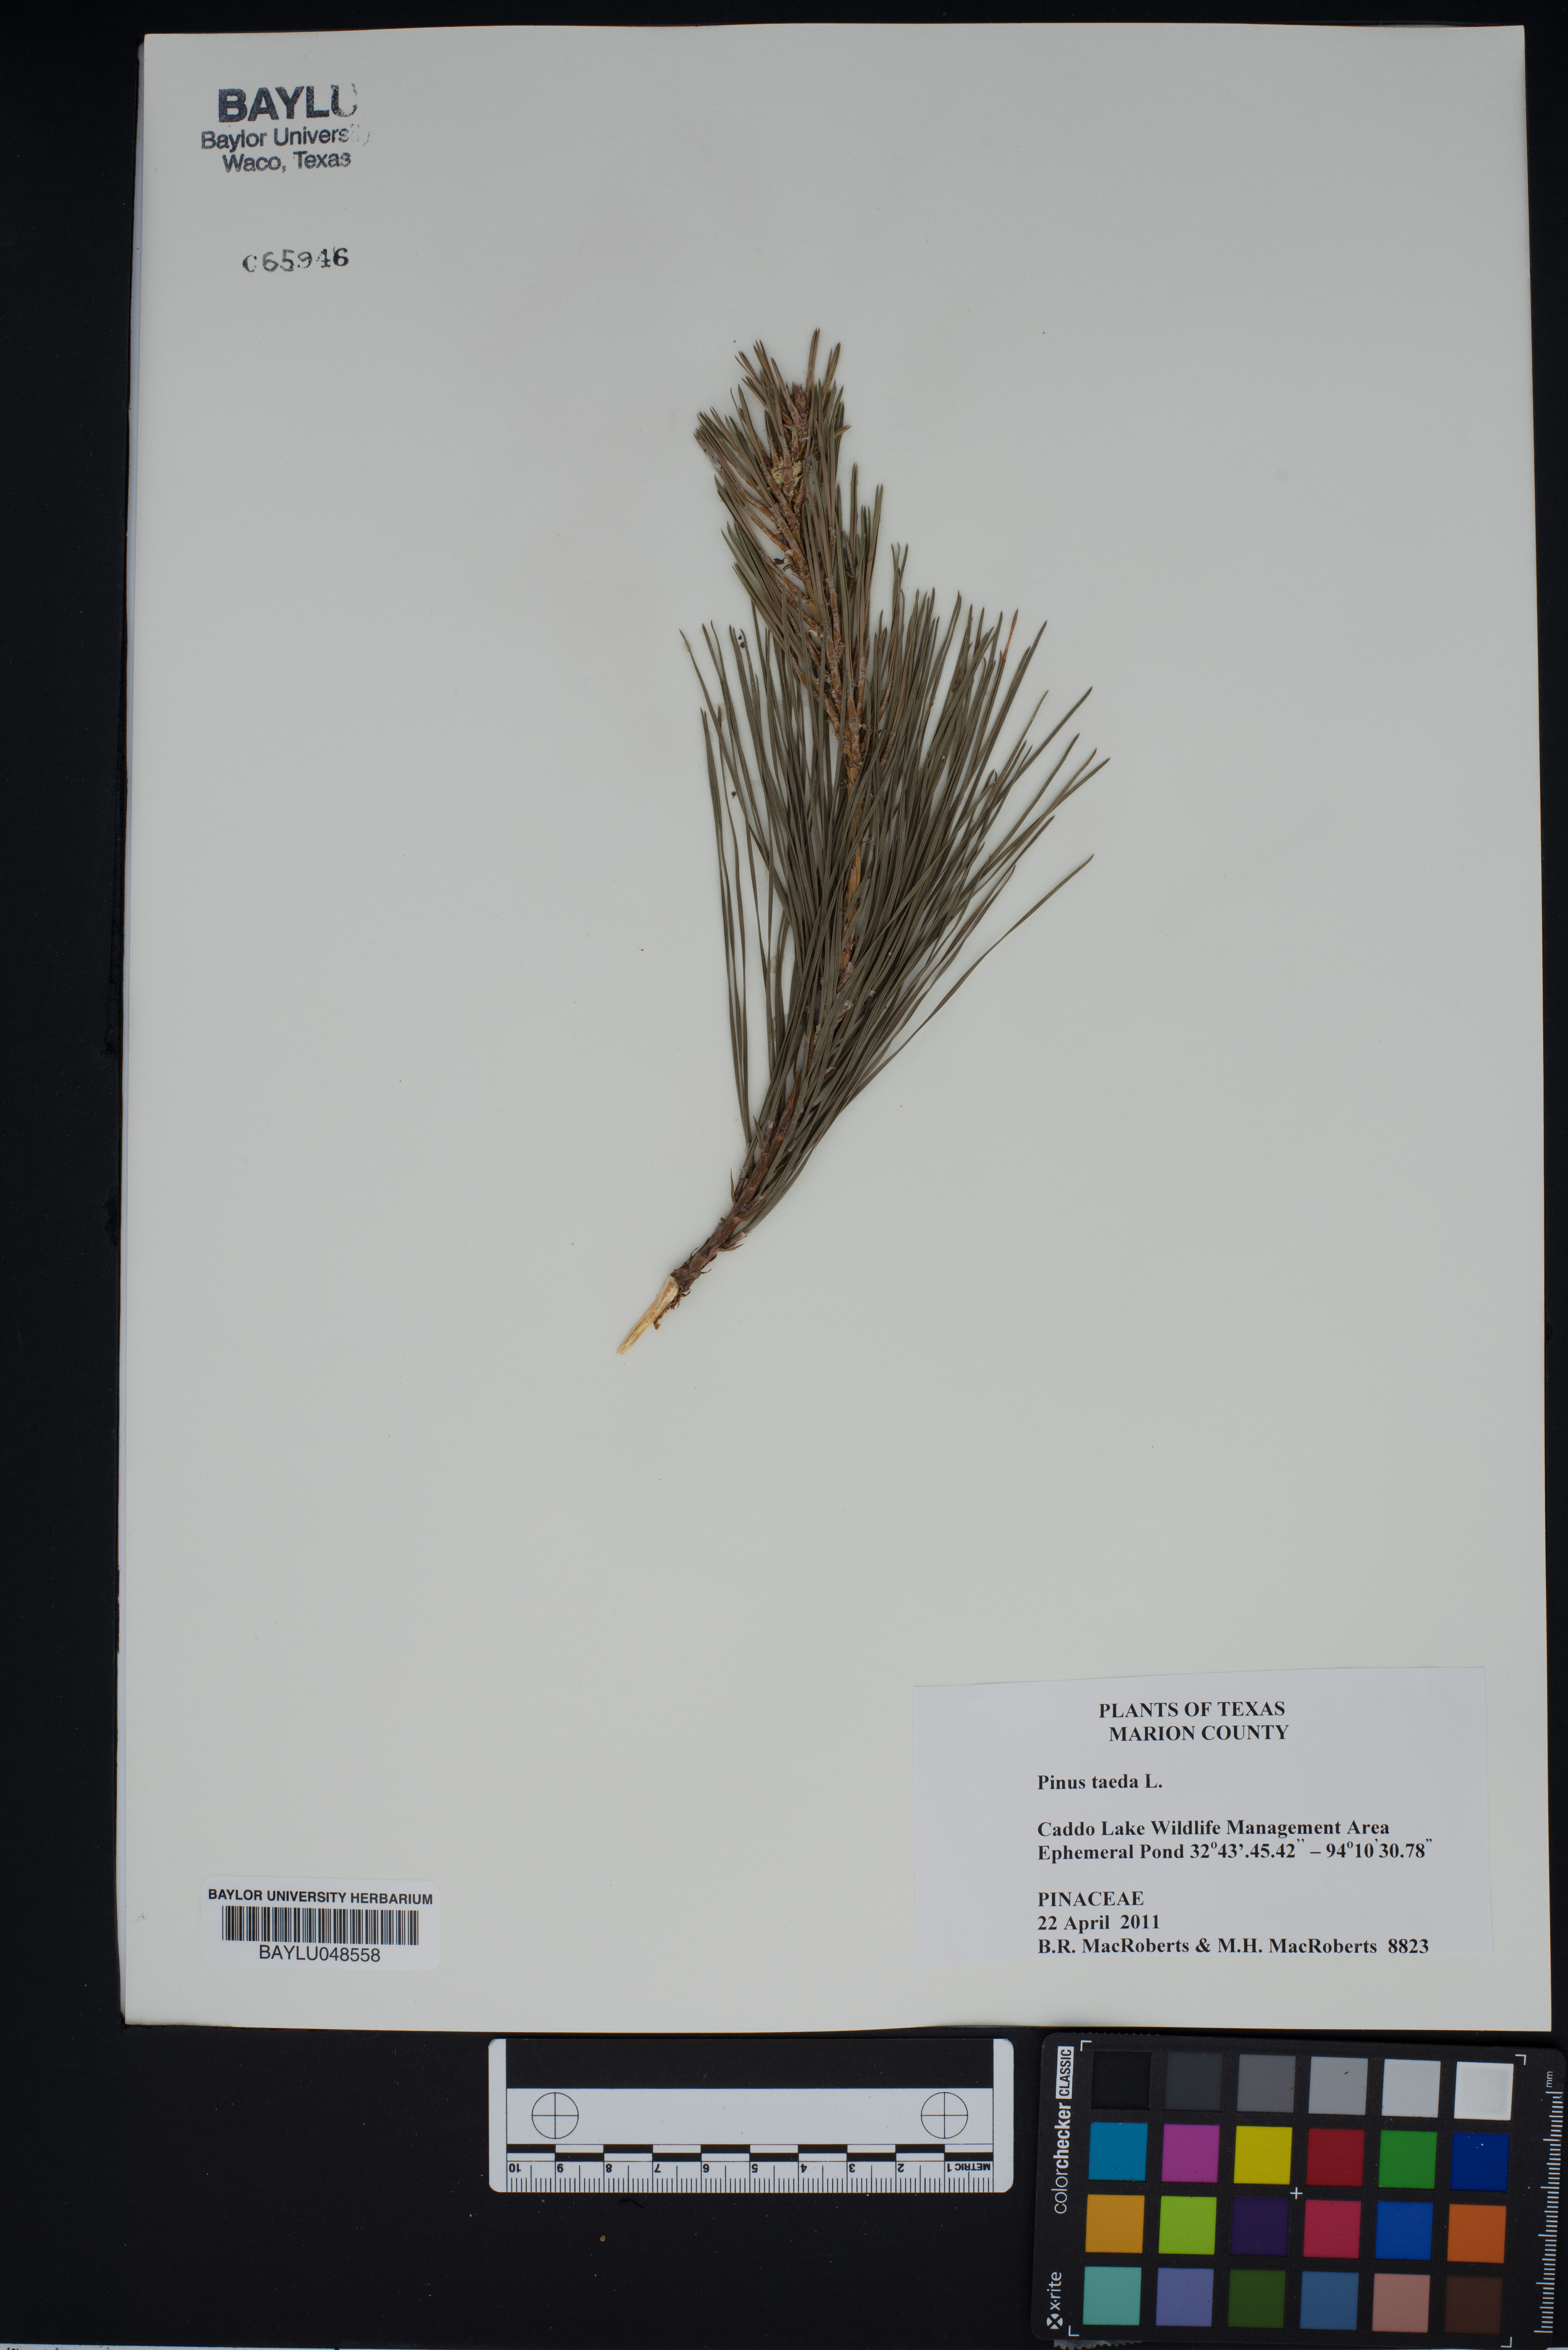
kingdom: Plantae
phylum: Tracheophyta
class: Pinopsida
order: Pinales
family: Pinaceae
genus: Pinus
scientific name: Pinus taeda
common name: Loblolly pine
